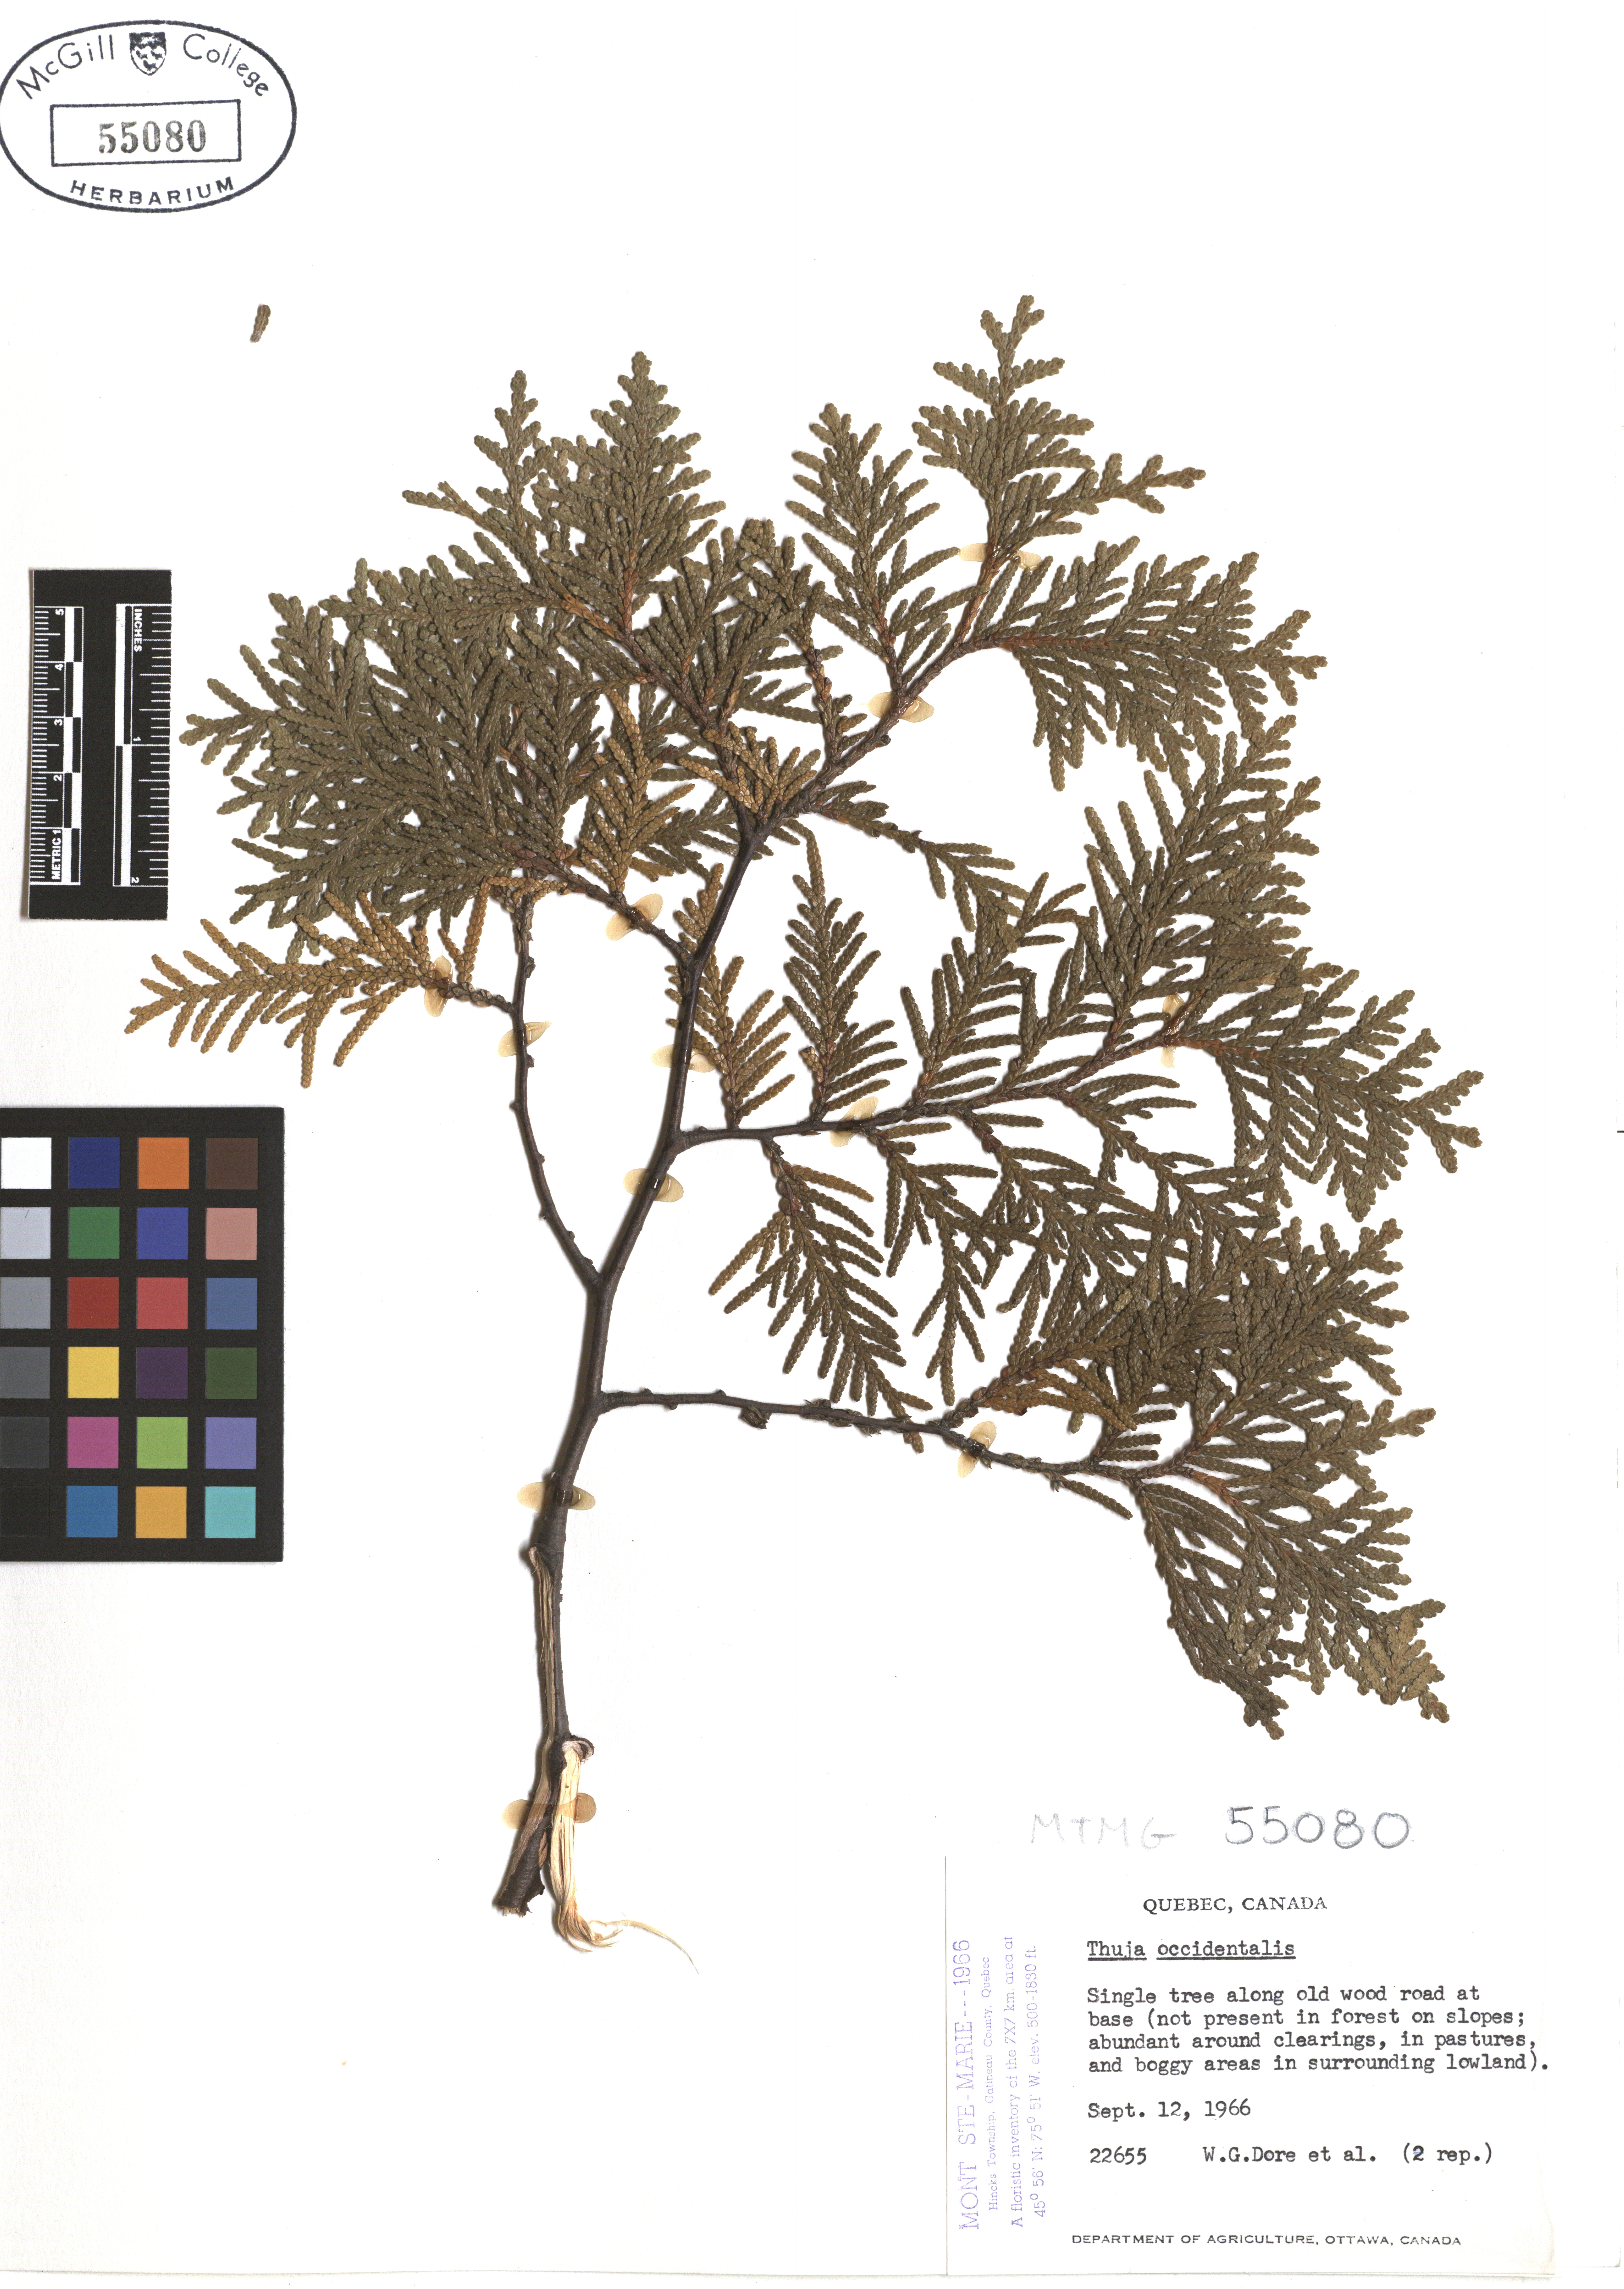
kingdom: Plantae
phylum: Tracheophyta
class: Pinopsida
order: Pinales
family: Cupressaceae
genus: Thuja
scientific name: Thuja occidentalis
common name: Northern white-cedar
